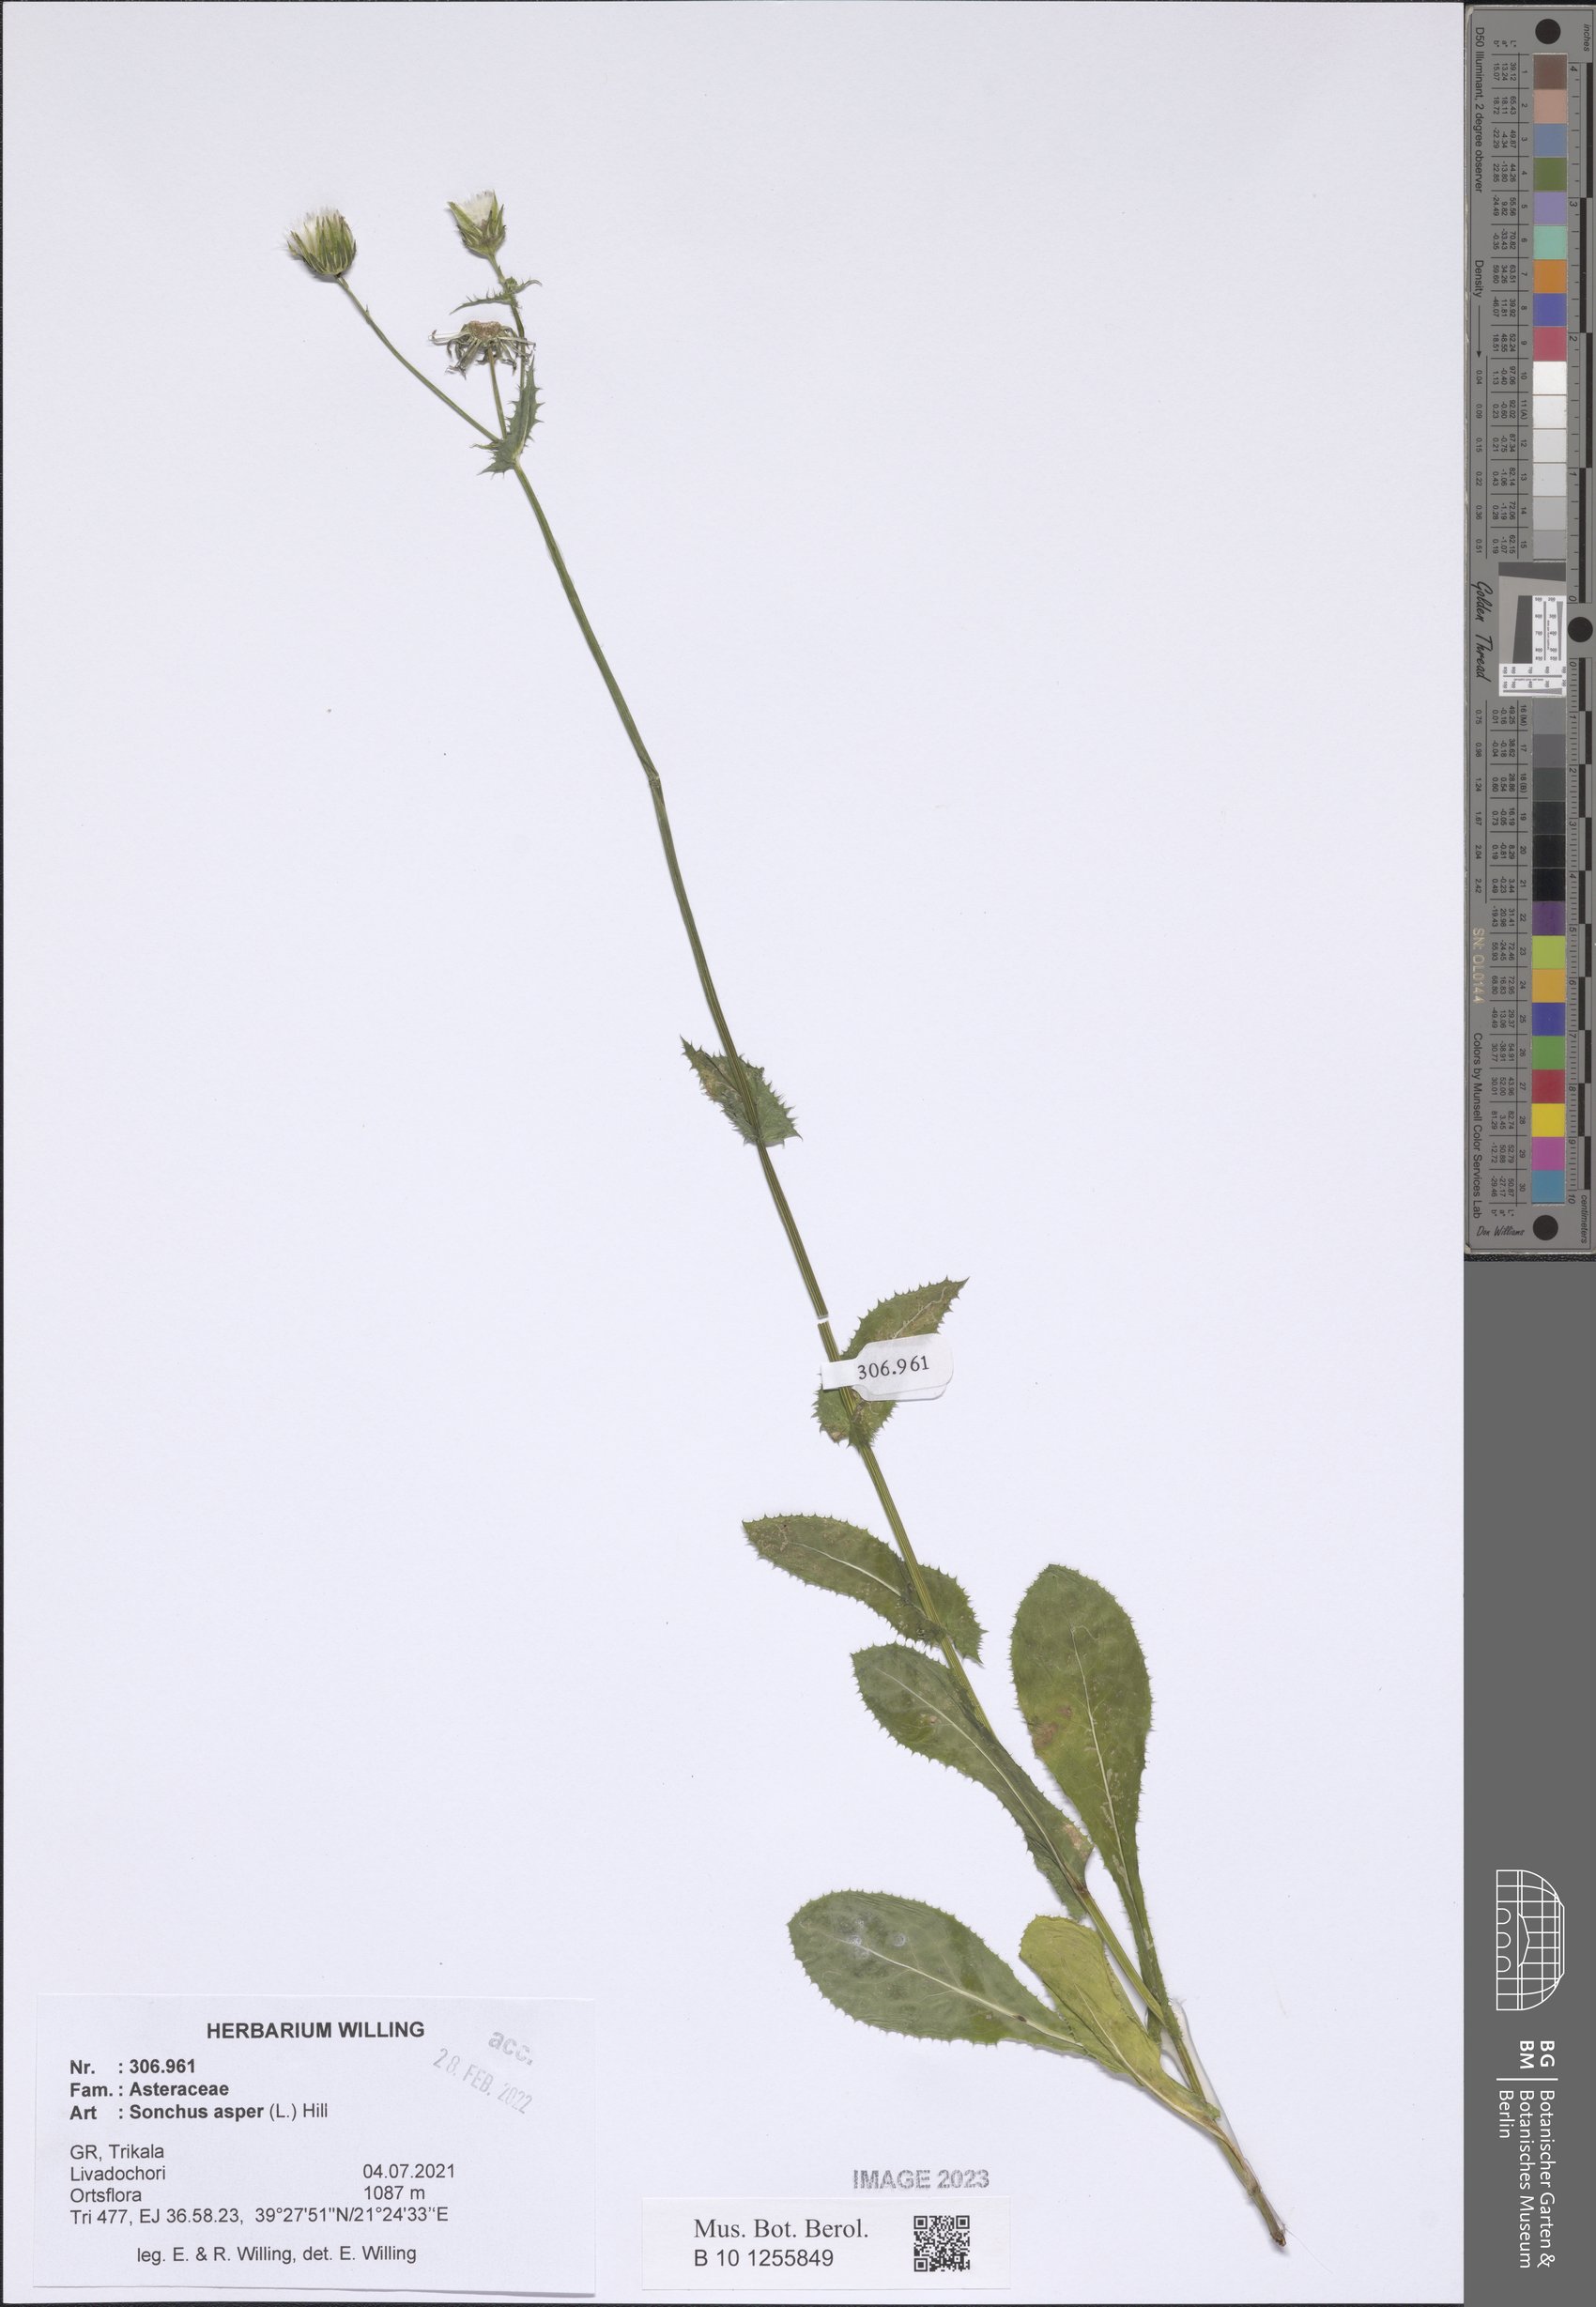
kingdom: Plantae
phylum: Tracheophyta
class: Magnoliopsida
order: Asterales
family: Asteraceae
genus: Sonchus
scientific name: Sonchus asper
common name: Prickly sow-thistle
